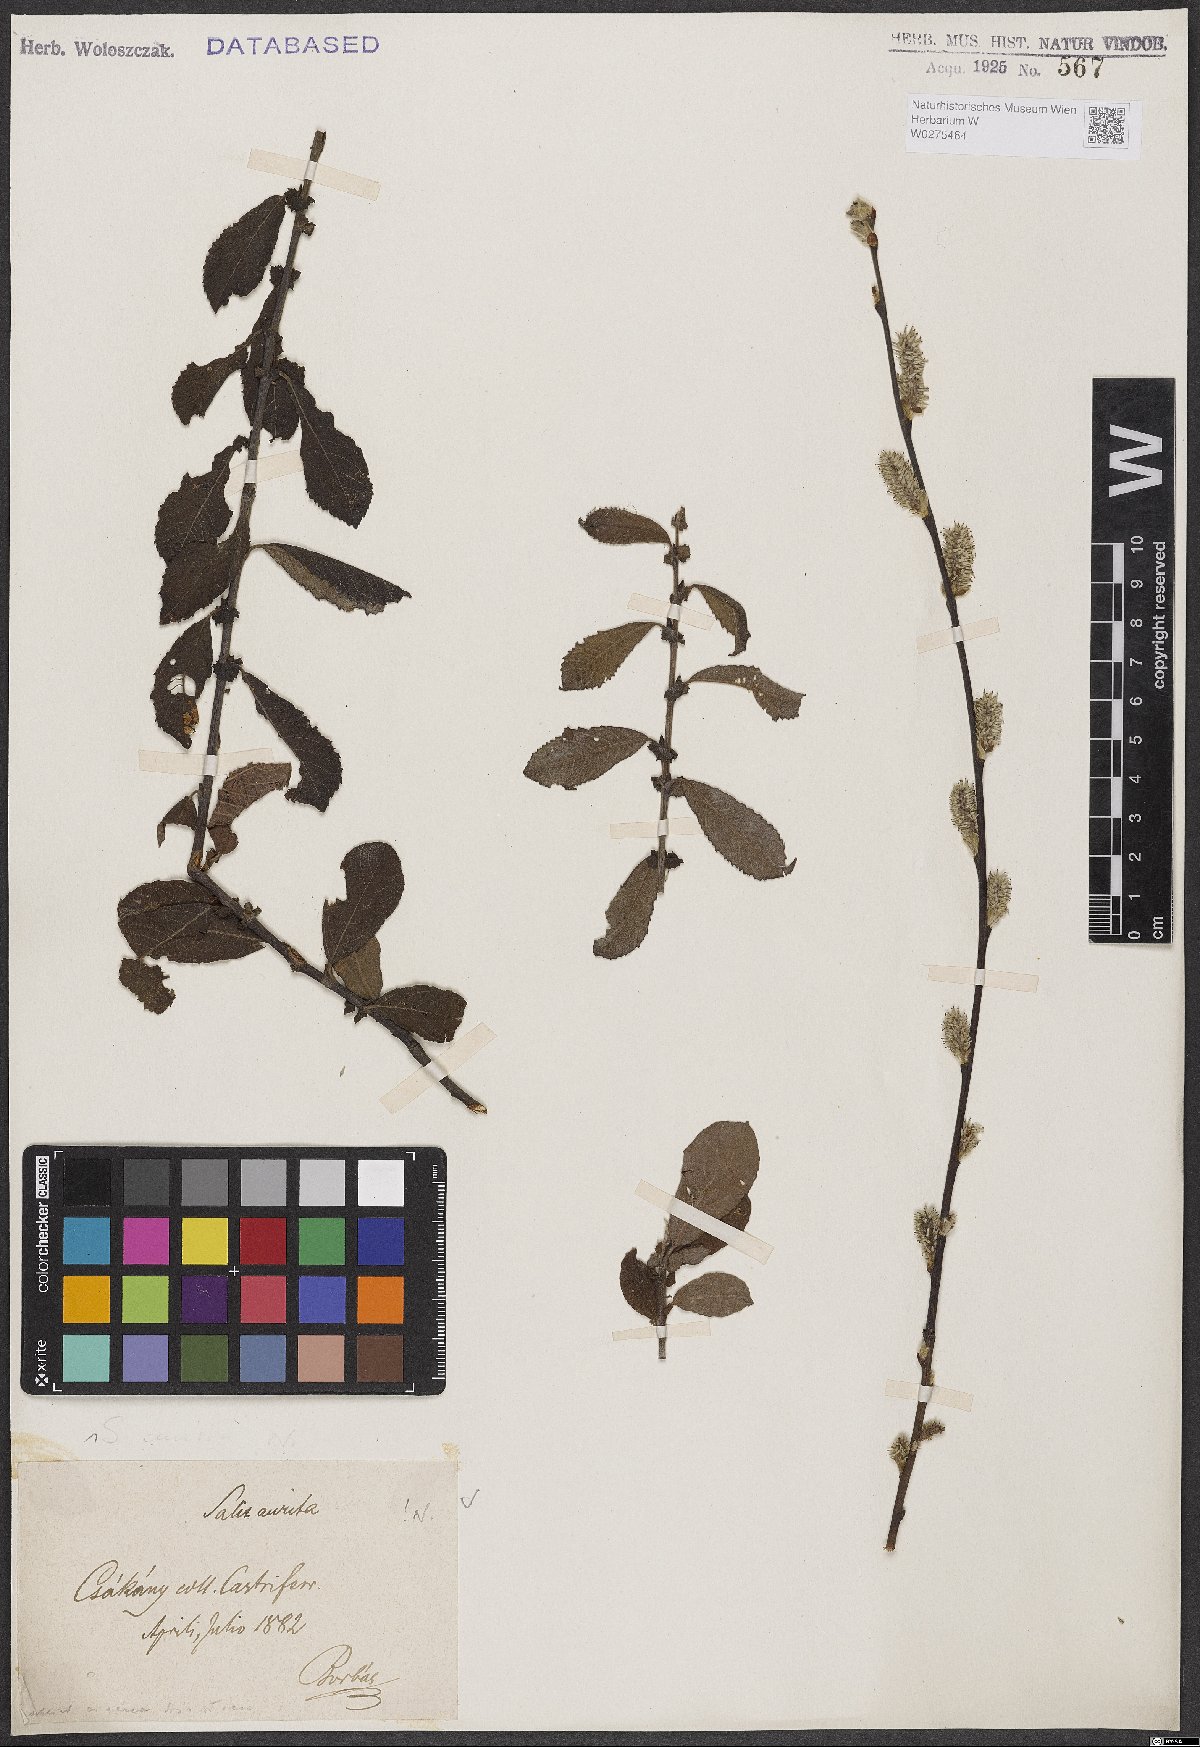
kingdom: Plantae
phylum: Tracheophyta
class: Magnoliopsida
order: Malpighiales
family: Salicaceae
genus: Salix
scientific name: Salix aurita
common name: Eared willow
